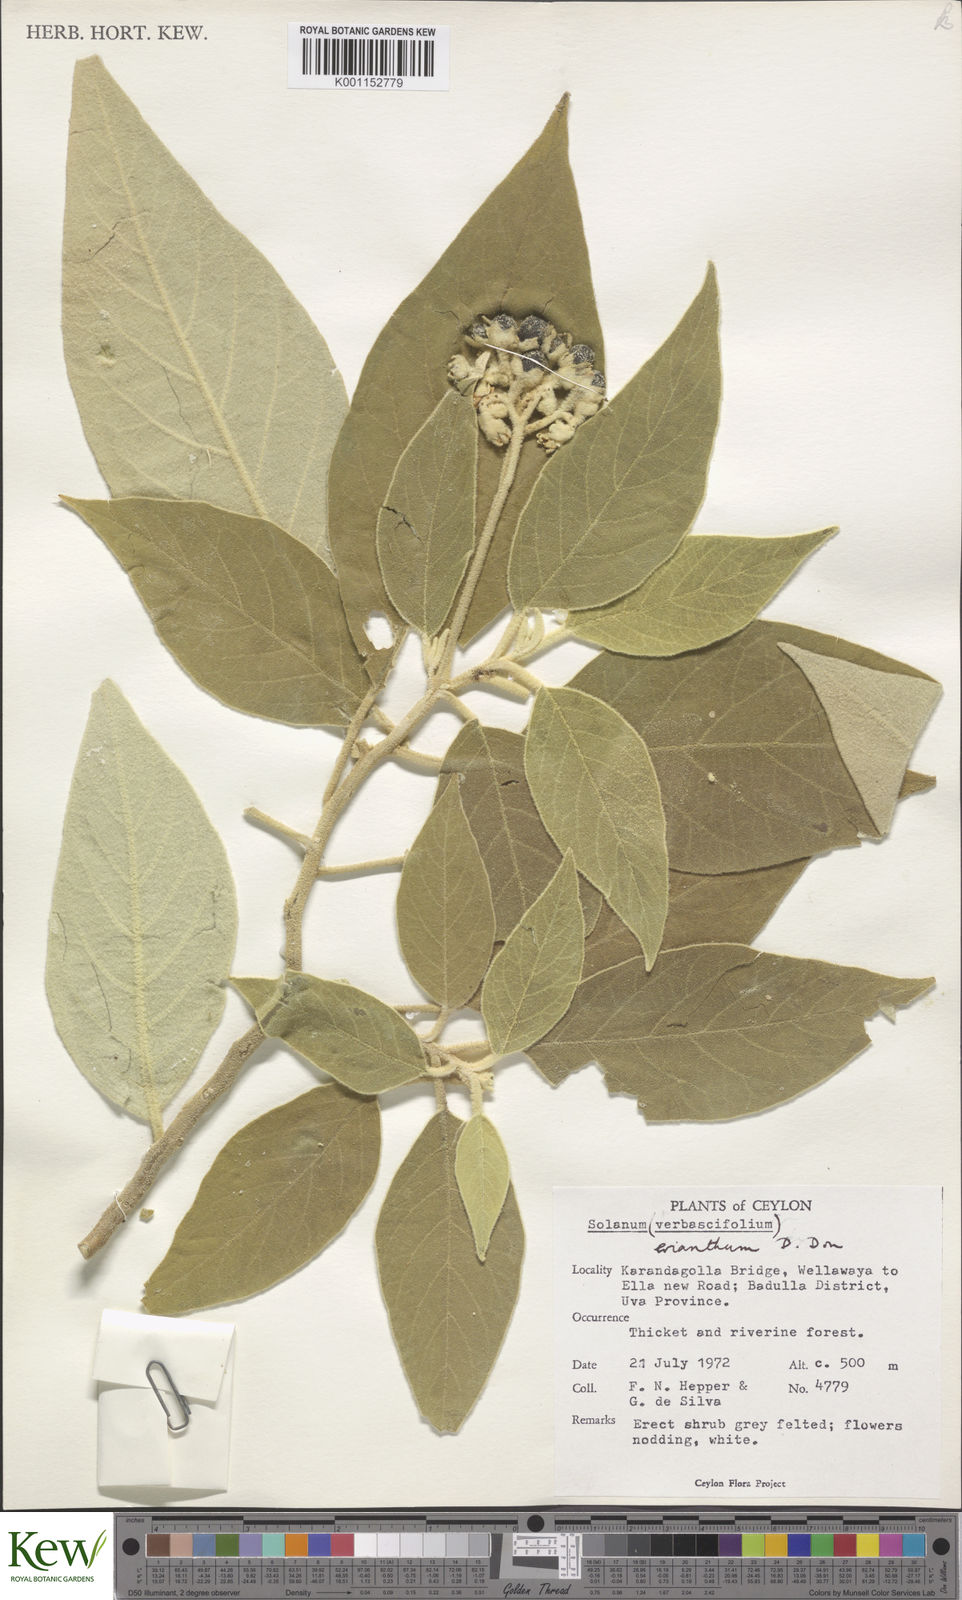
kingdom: Plantae
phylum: Tracheophyta
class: Magnoliopsida
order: Solanales
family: Solanaceae
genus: Solanum
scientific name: Solanum erianthum
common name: Tobacco-tree
